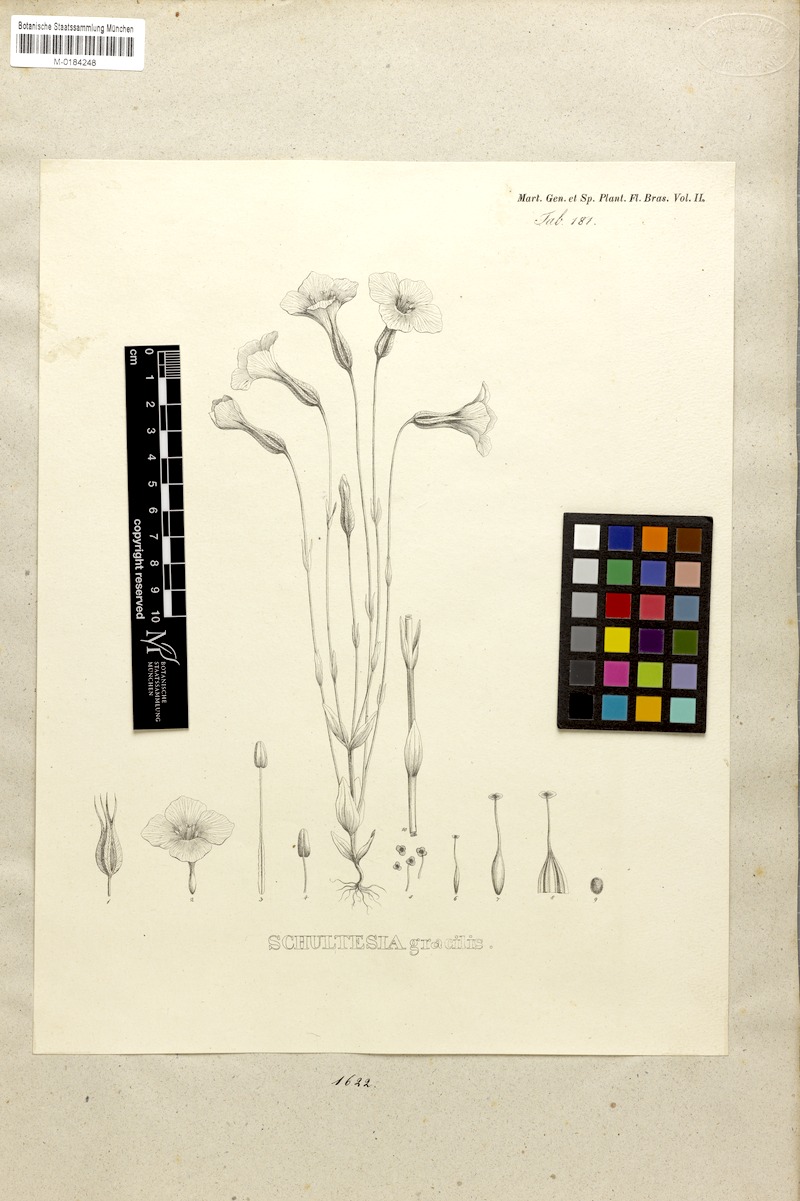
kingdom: Plantae
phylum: Tracheophyta
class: Magnoliopsida
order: Gentianales
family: Gentianaceae
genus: Schultesia
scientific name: Schultesia gracilis
